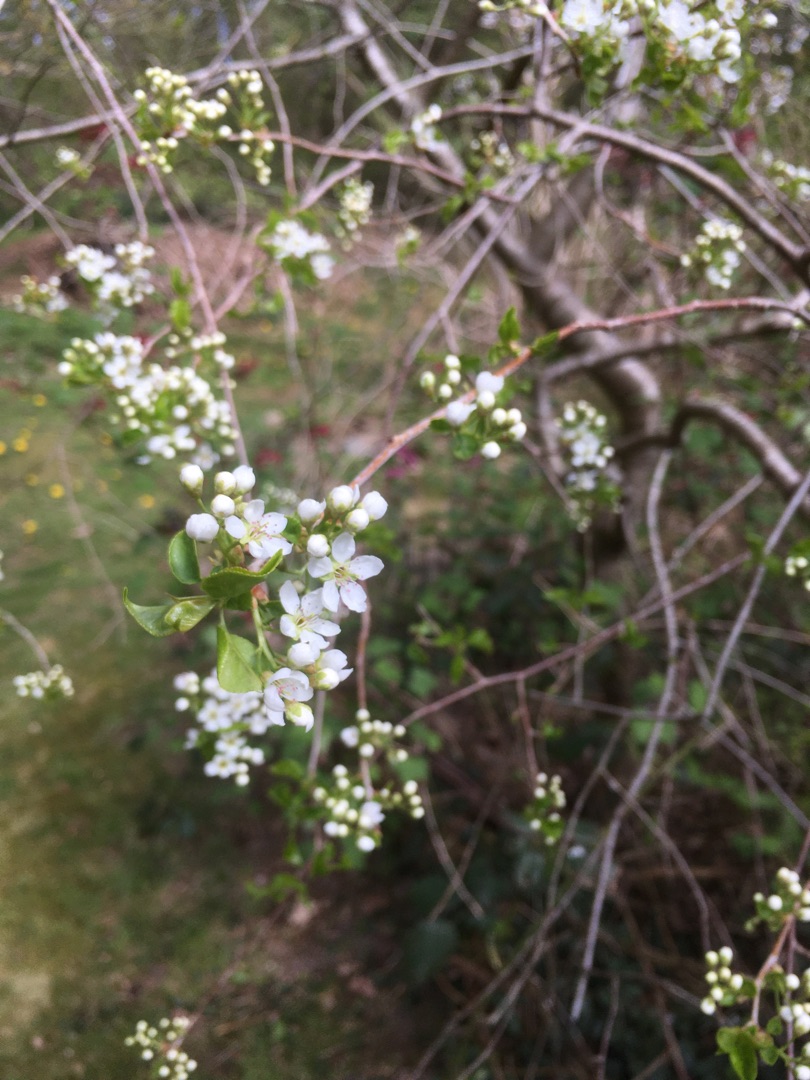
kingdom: Plantae
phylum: Tracheophyta
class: Magnoliopsida
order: Rosales
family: Rosaceae
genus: Prunus
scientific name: Prunus mahaleb
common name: Weichsel
